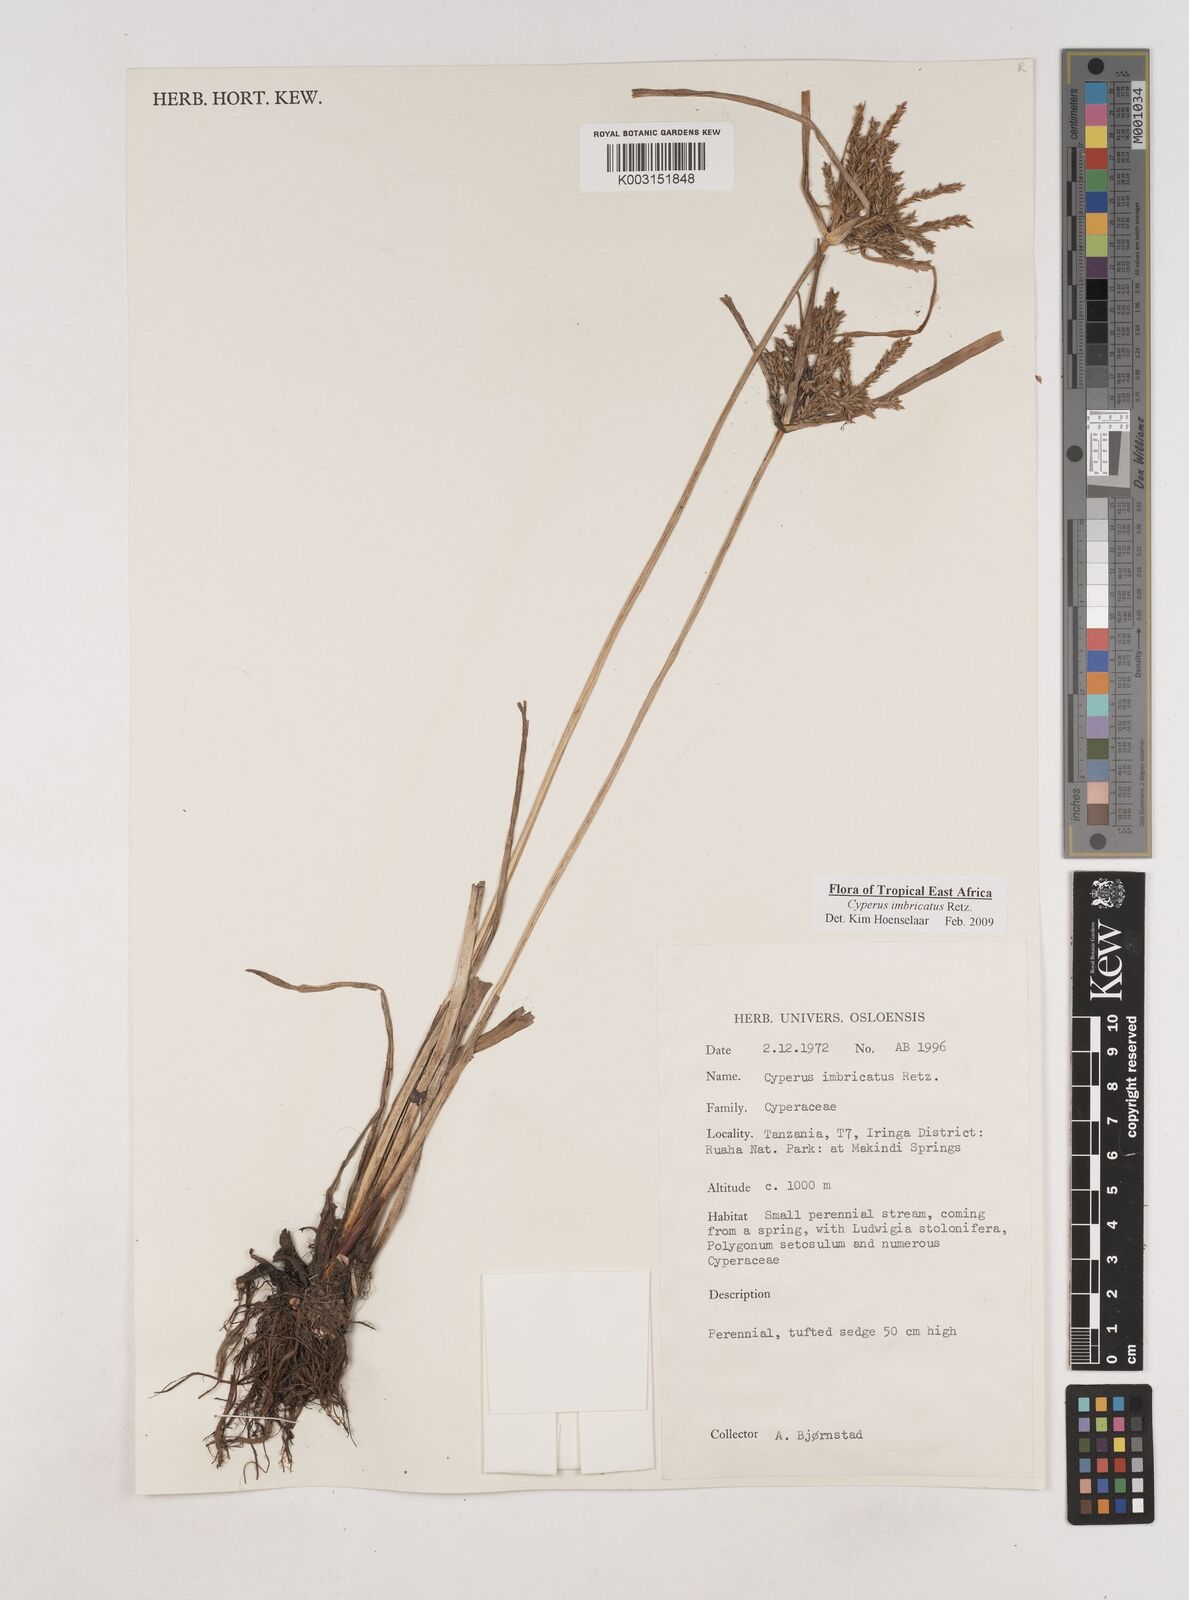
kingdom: Plantae
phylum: Tracheophyta
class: Liliopsida
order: Poales
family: Cyperaceae
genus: Cyperus
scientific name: Cyperus imbricatus
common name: Shingle flatsedge
